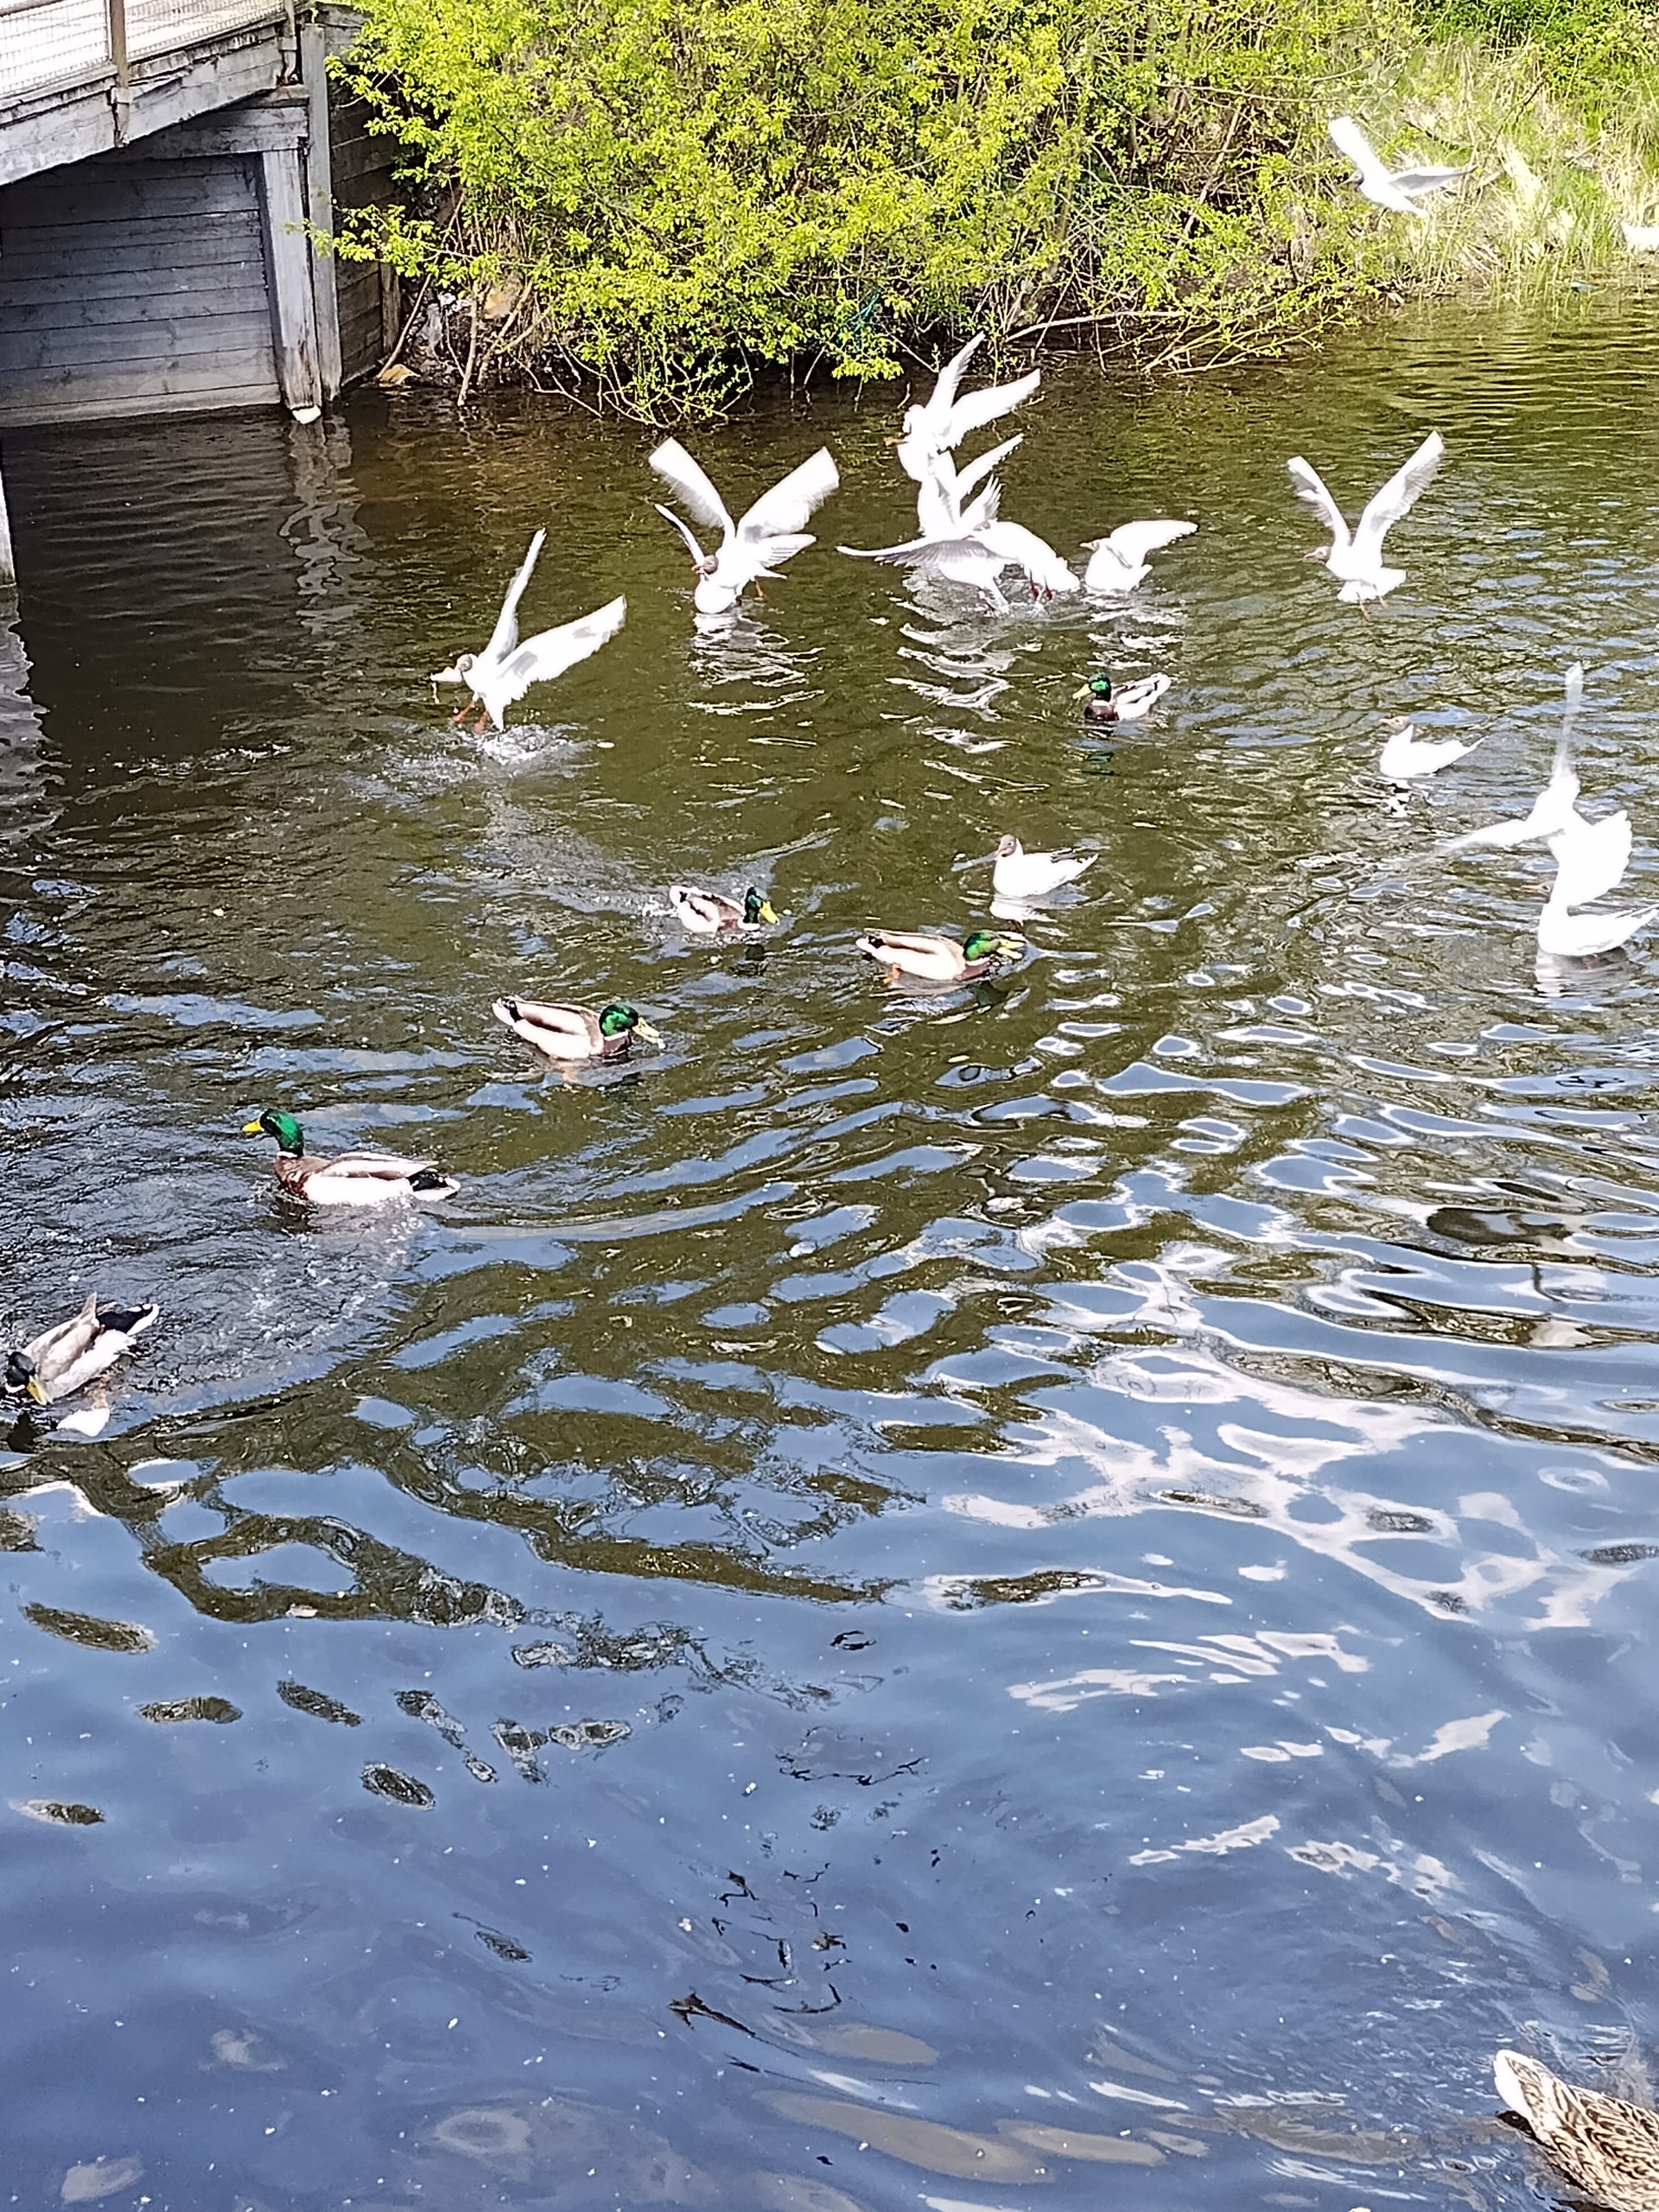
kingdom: Animalia
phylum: Chordata
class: Aves
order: Anseriformes
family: Anatidae
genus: Anas
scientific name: Anas platyrhynchos
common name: Gråand
